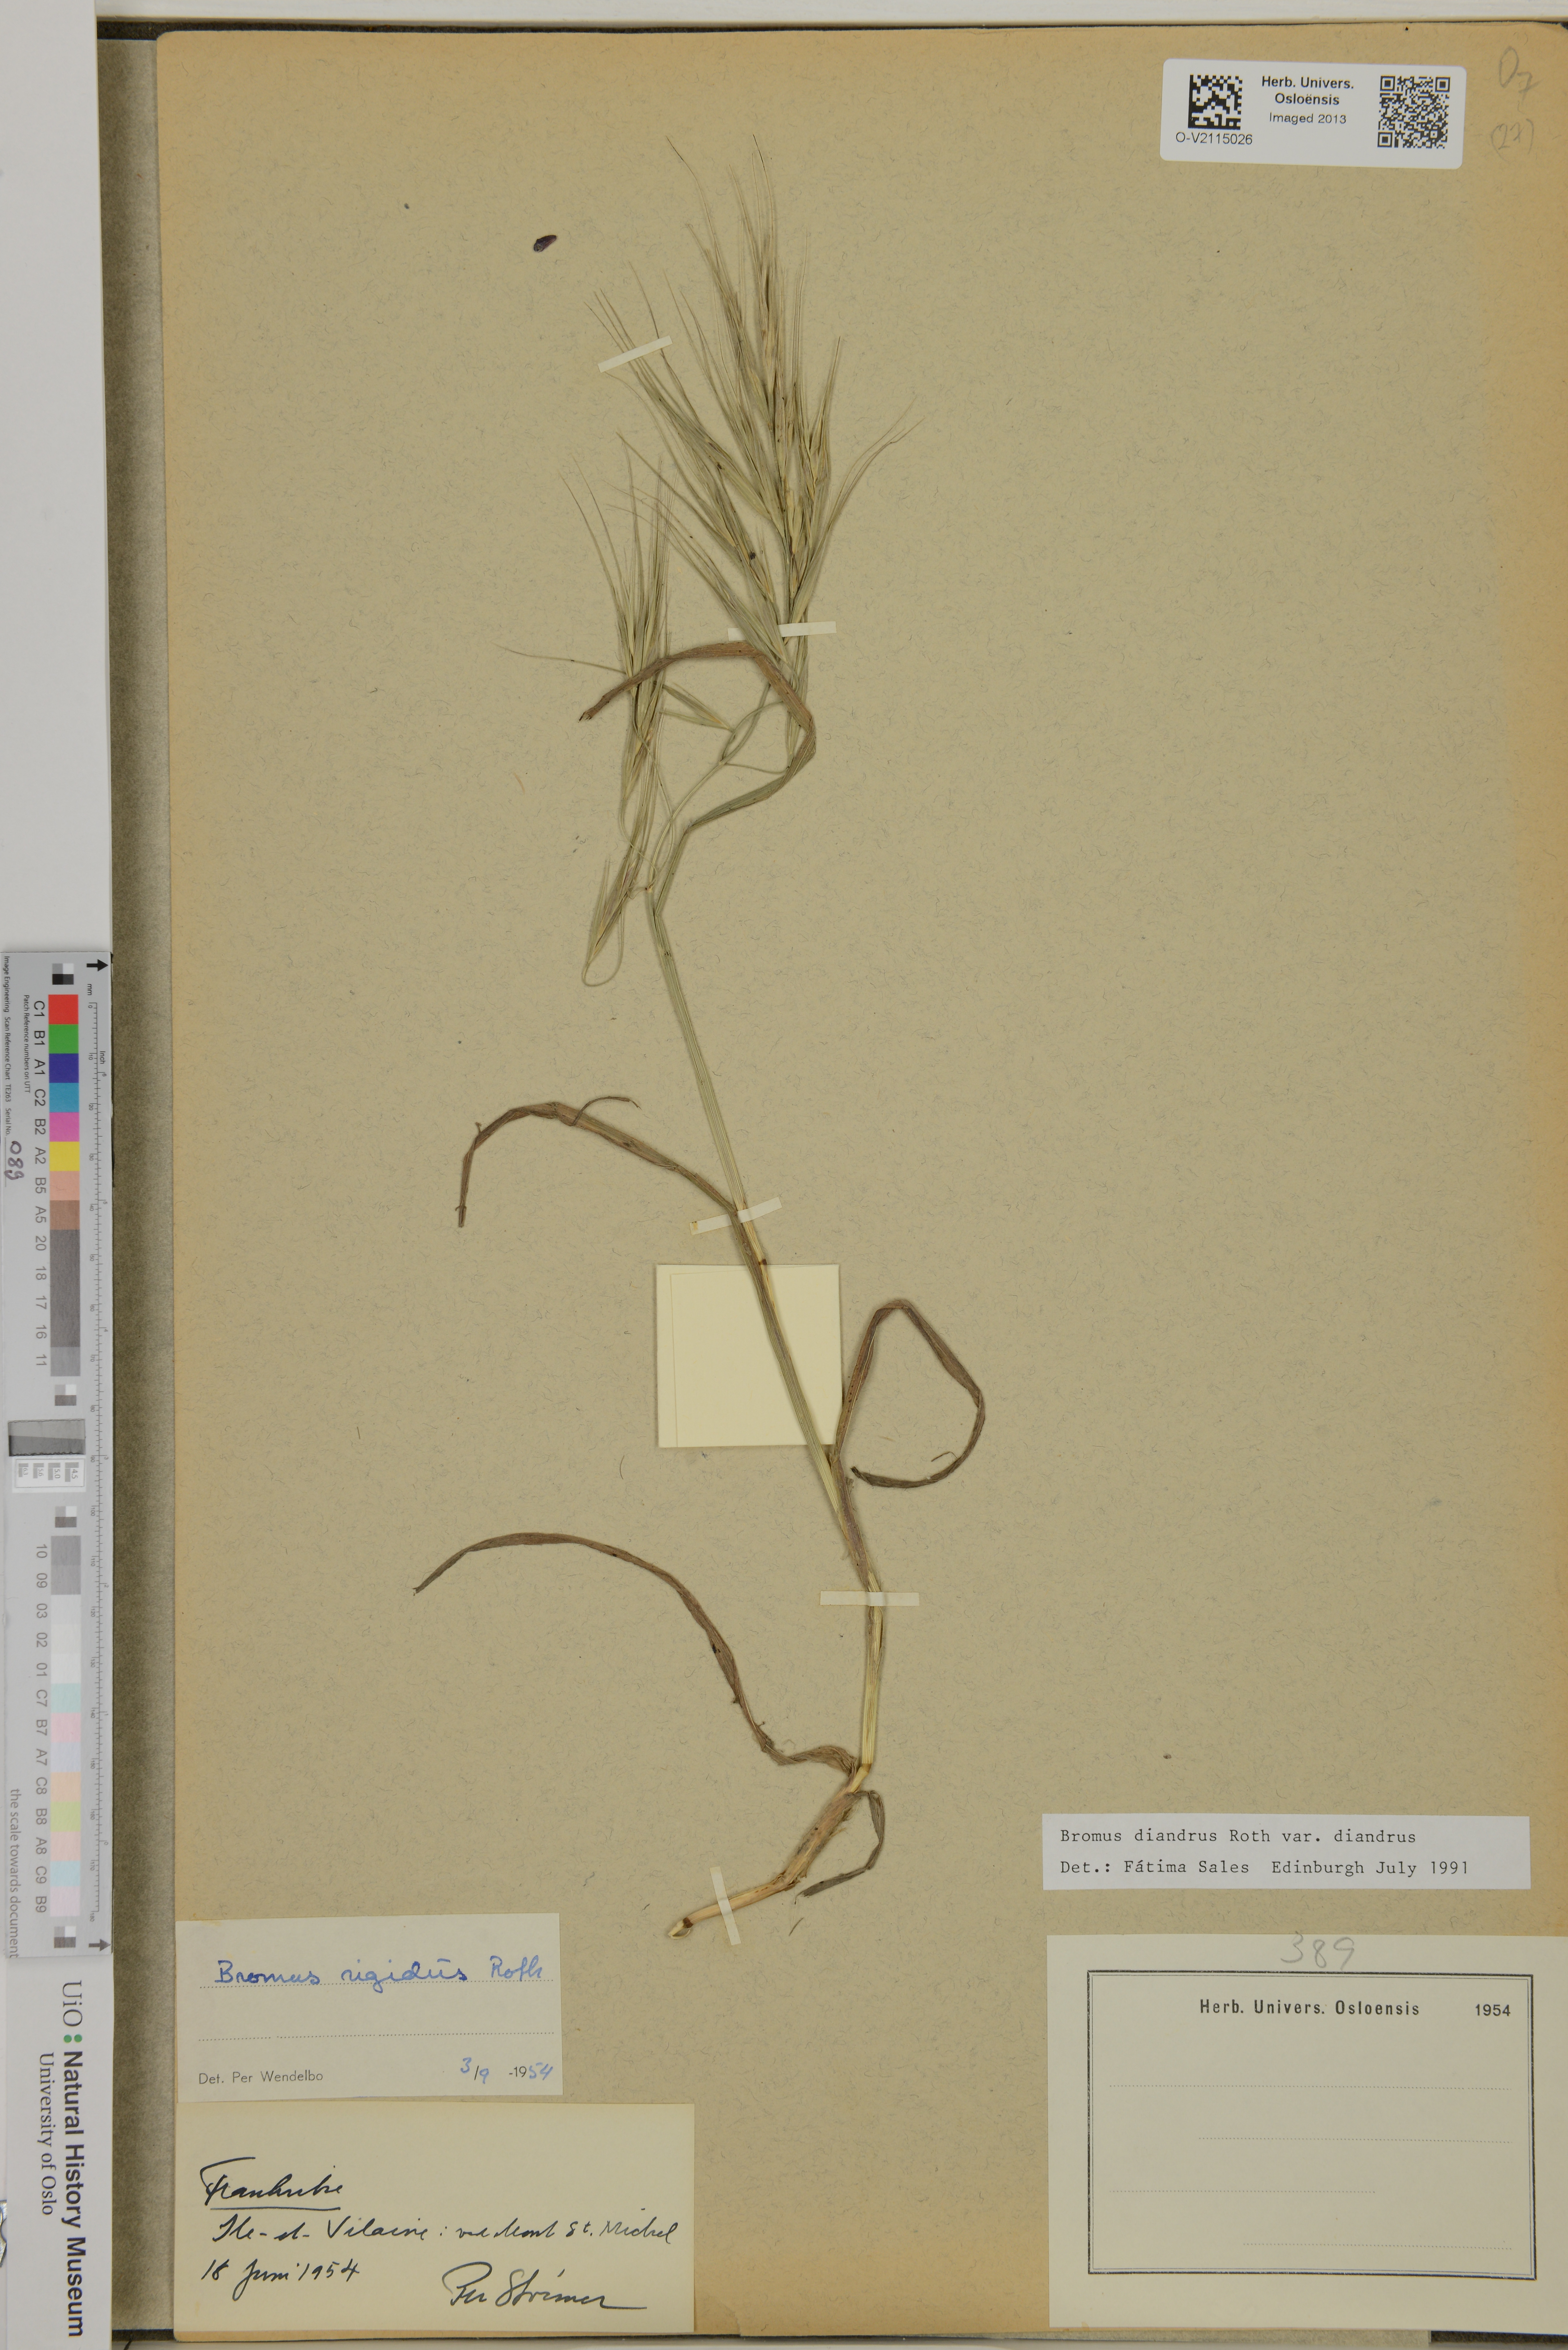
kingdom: Plantae
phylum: Tracheophyta
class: Liliopsida
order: Poales
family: Poaceae
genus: Bromus
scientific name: Bromus diandrus
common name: Ripgut brome
